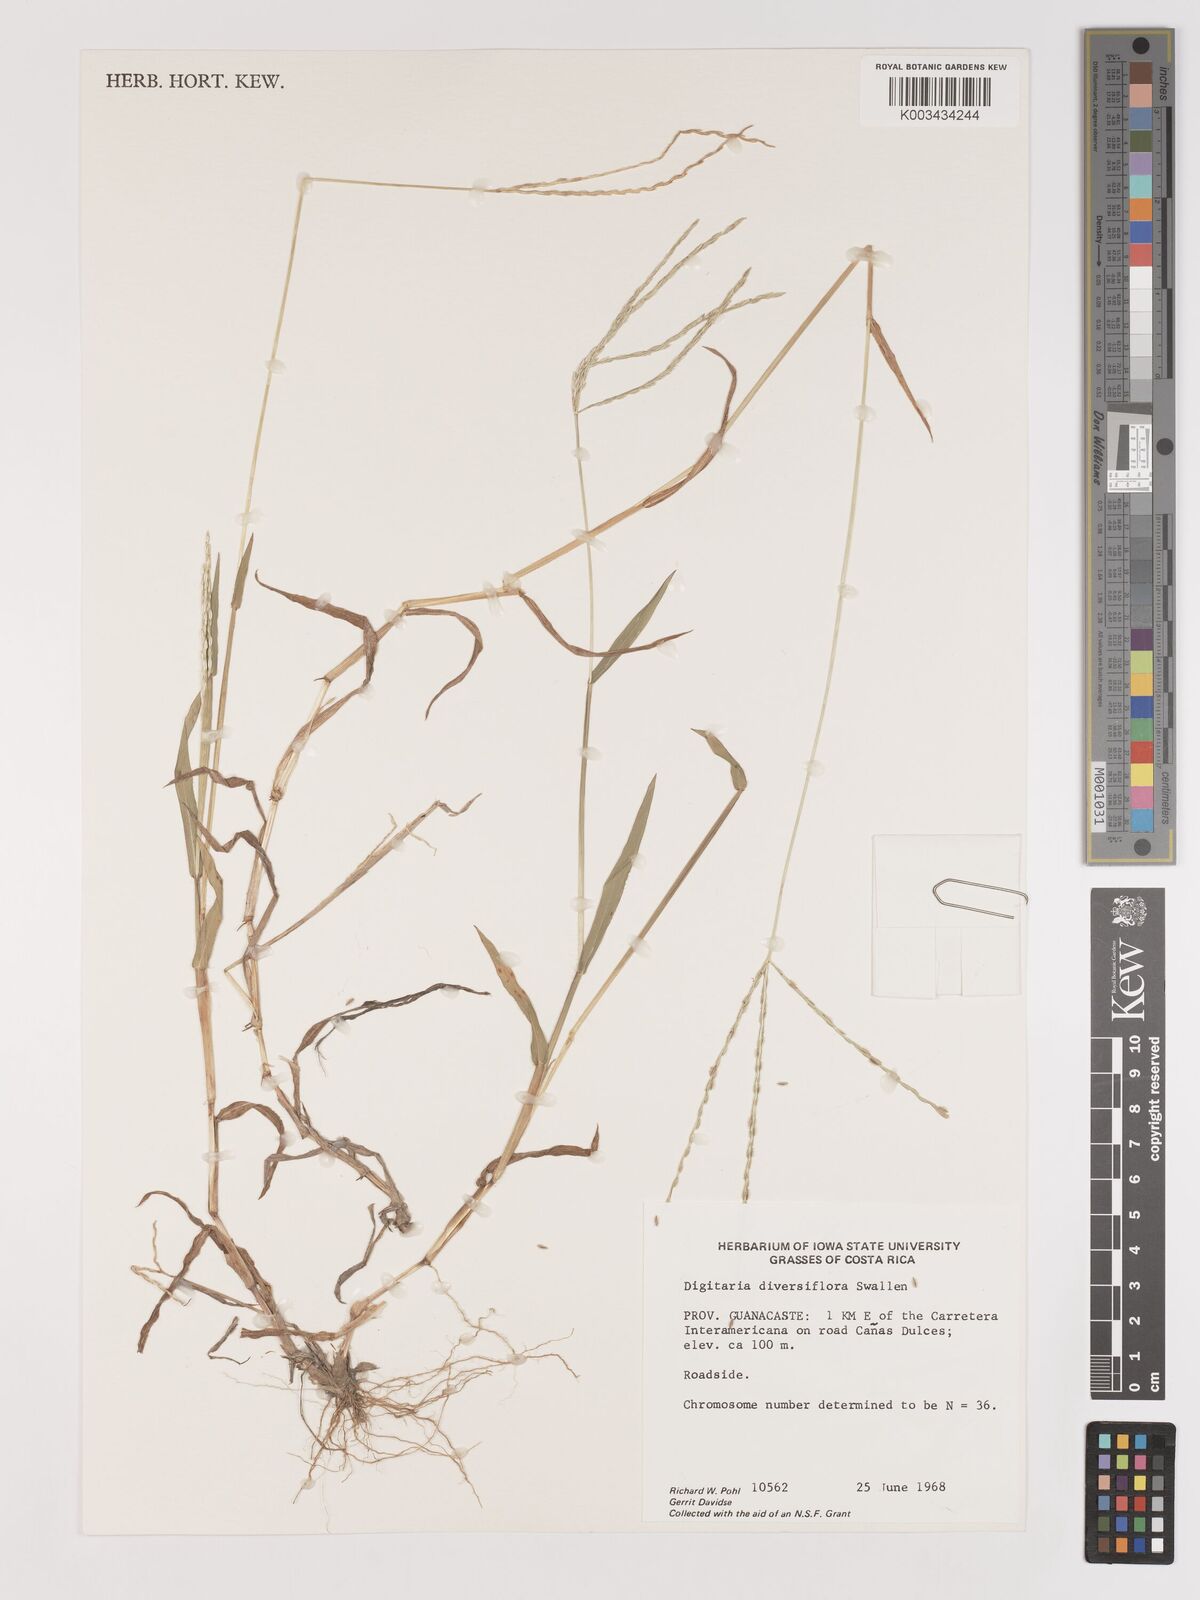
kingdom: Plantae
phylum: Tracheophyta
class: Liliopsida
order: Poales
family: Poaceae
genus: Digitaria
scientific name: Digitaria bicornis
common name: Asian crabgrass
